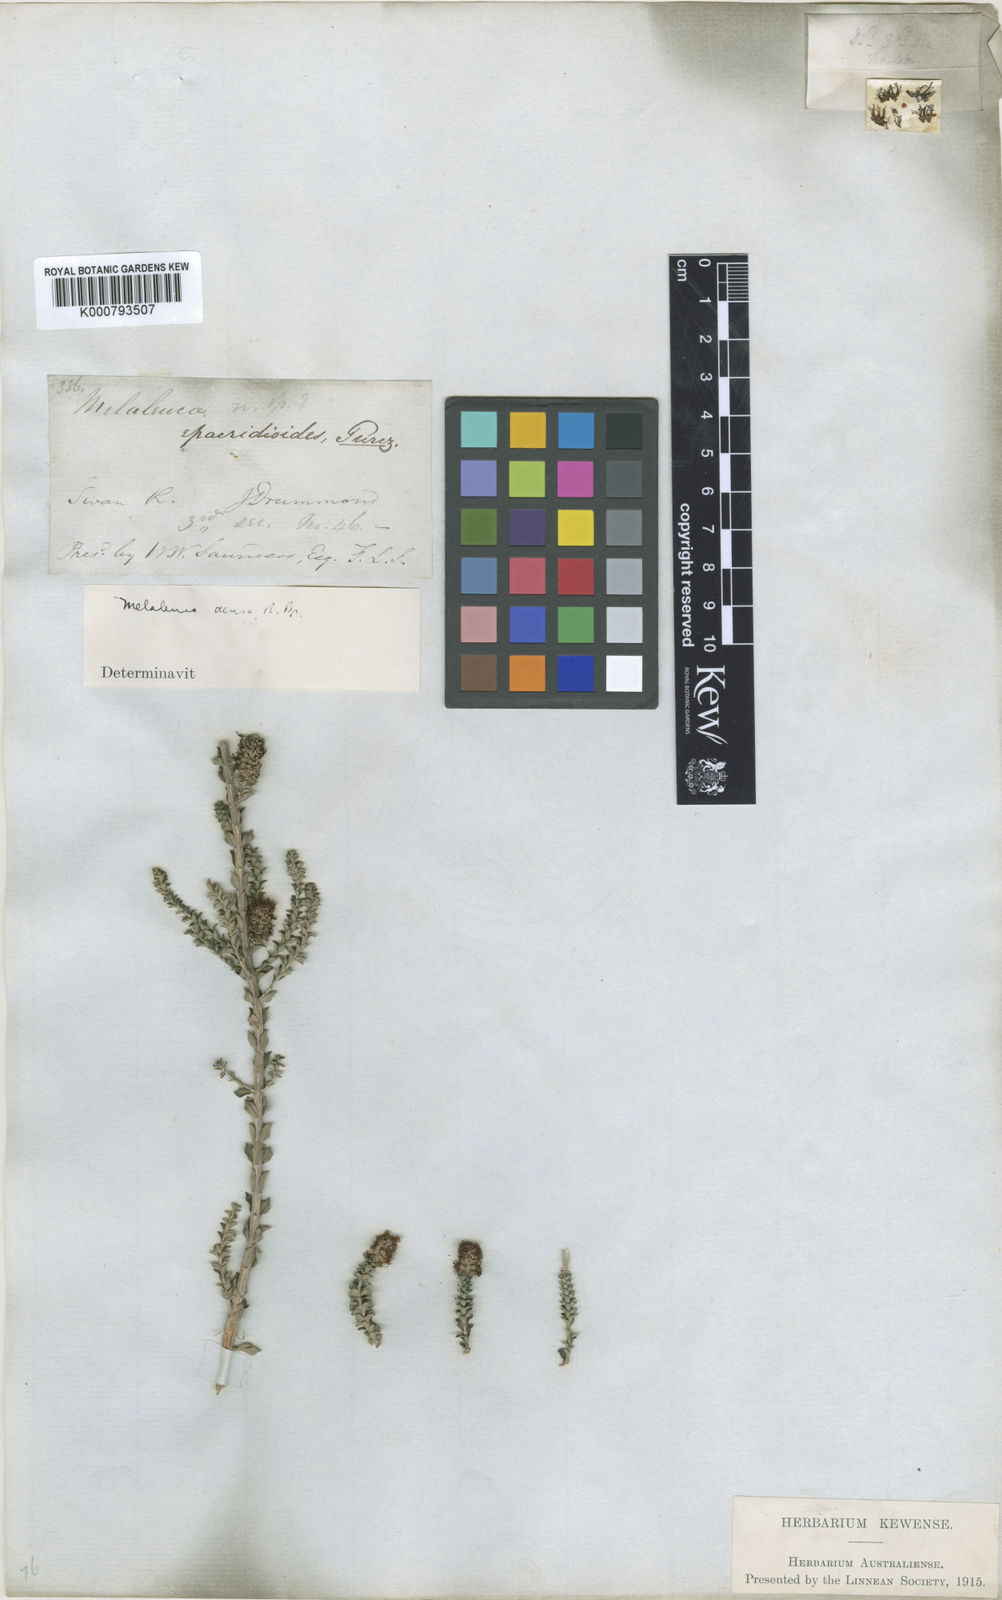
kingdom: Plantae
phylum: Tracheophyta
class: Magnoliopsida
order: Myrtales
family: Myrtaceae
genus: Melaleuca
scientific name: Melaleuca densa
